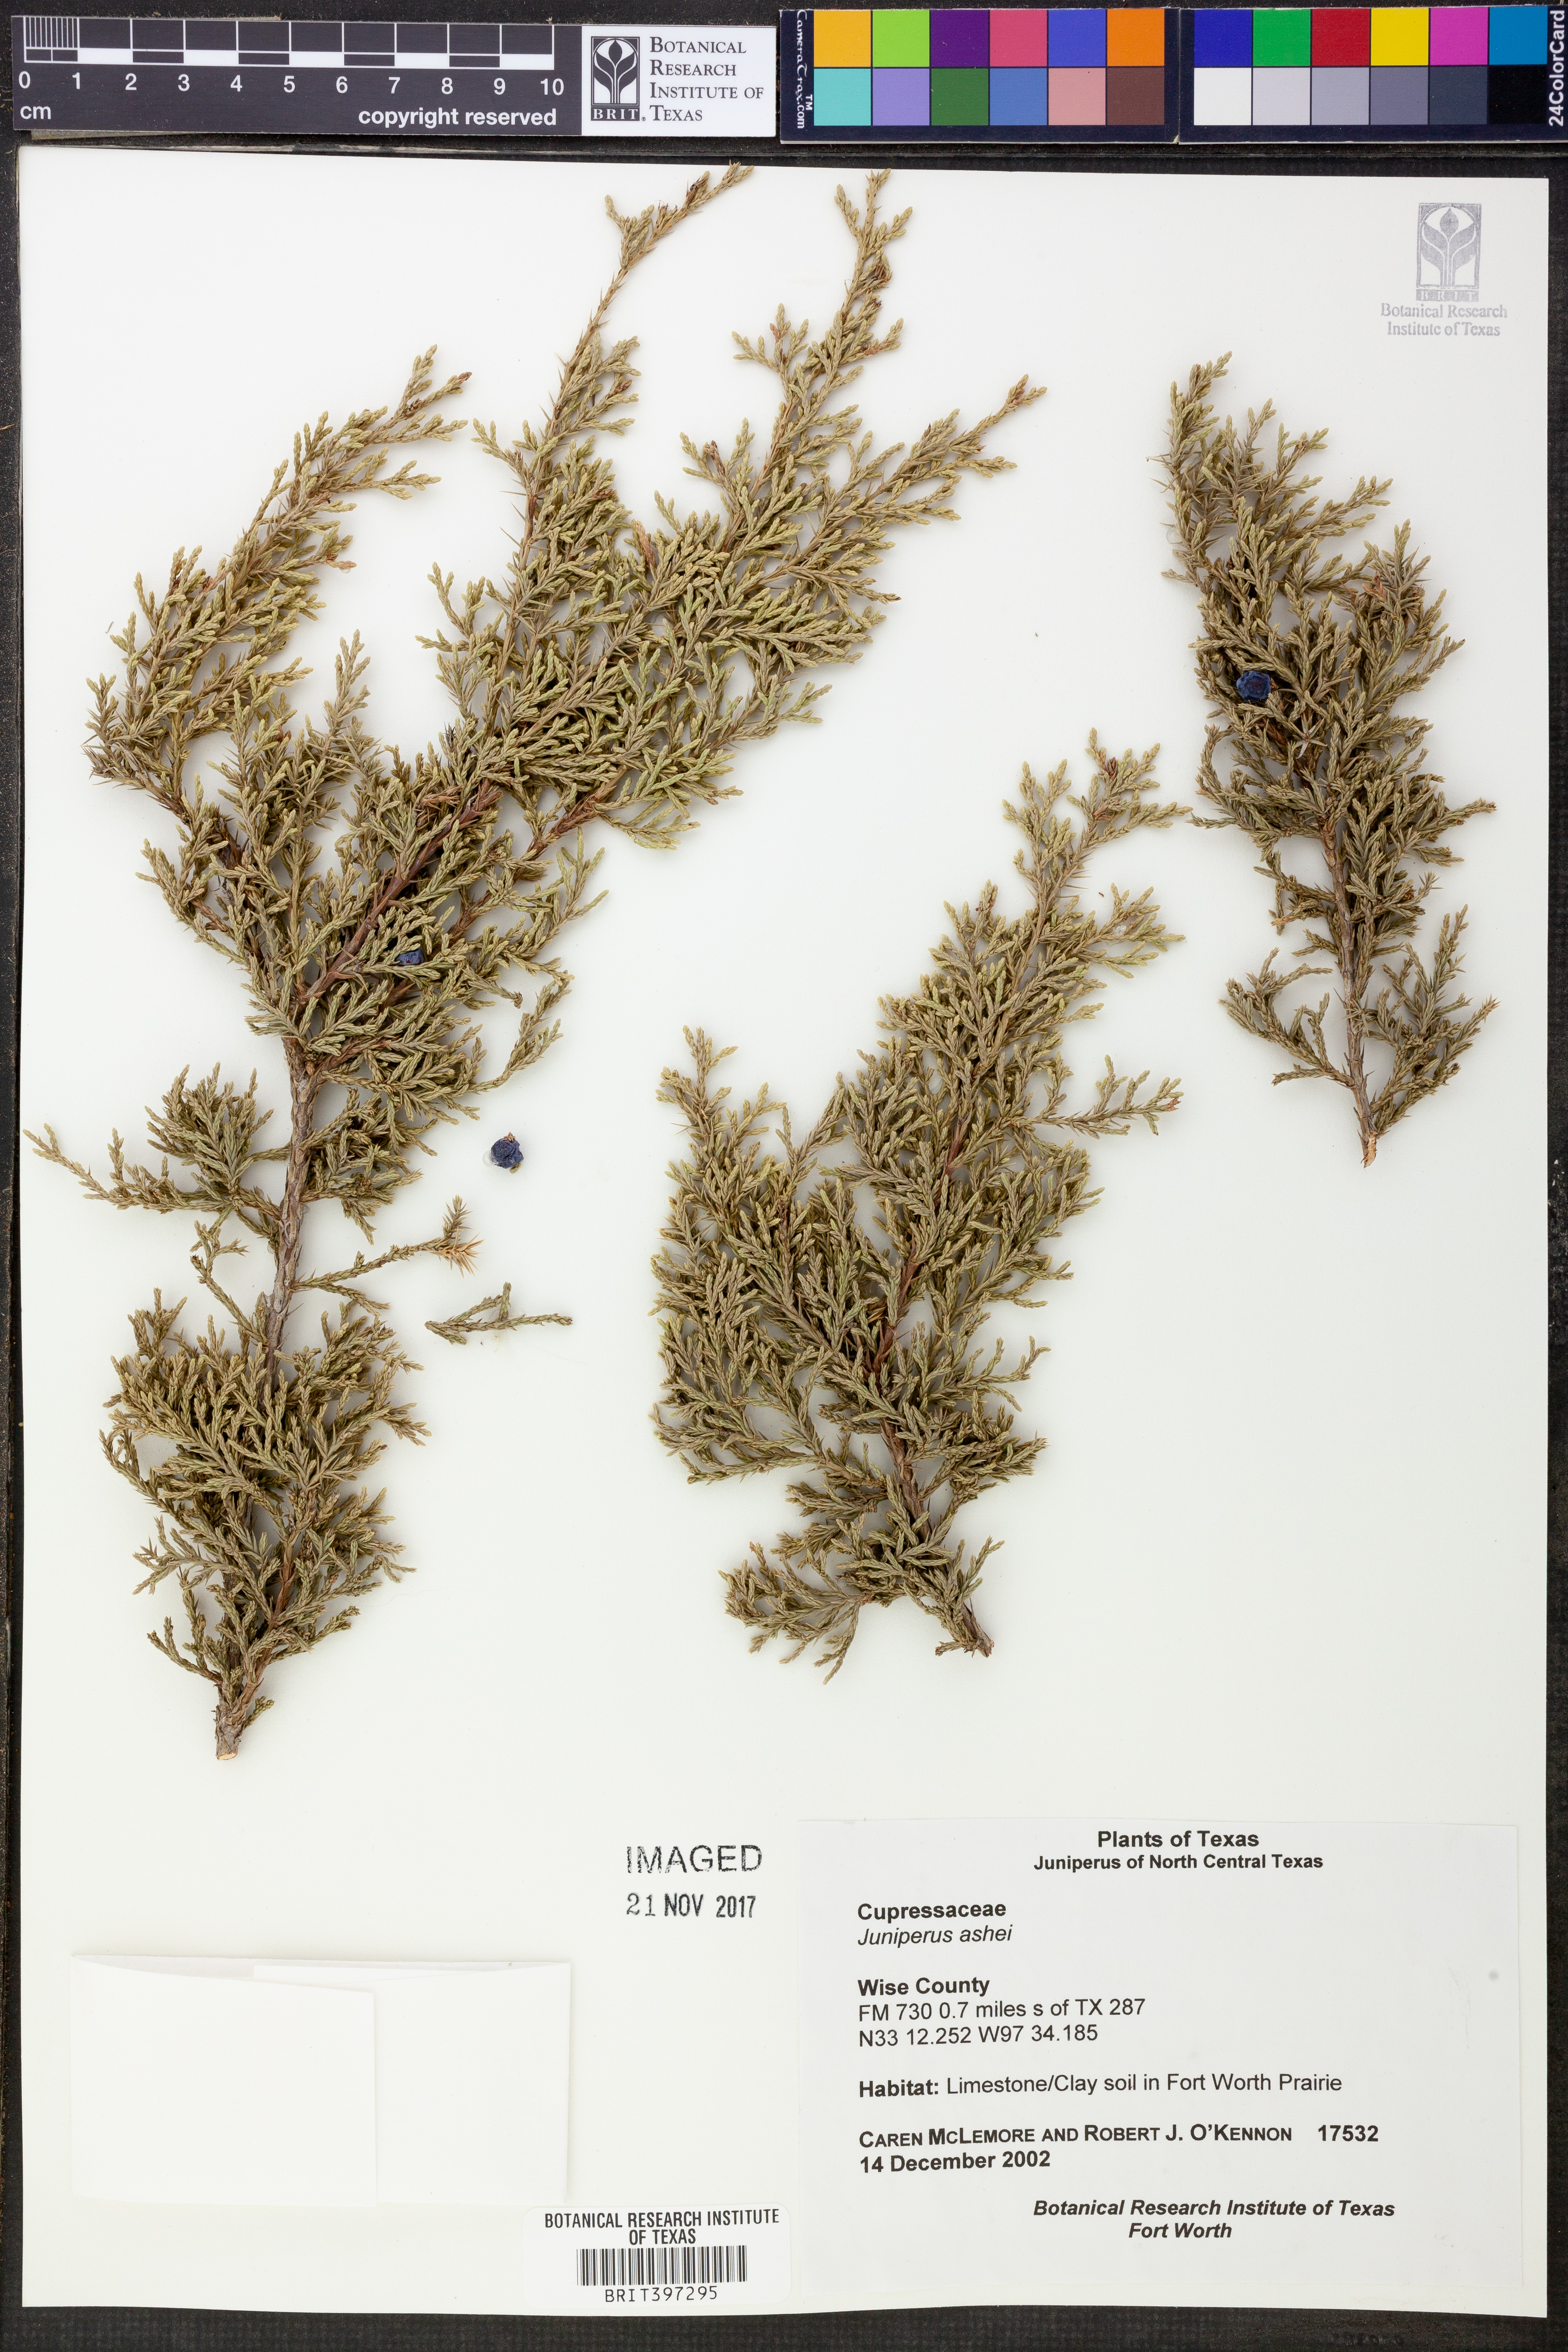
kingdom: Plantae
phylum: Tracheophyta
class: Pinopsida
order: Pinales
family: Cupressaceae
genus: Juniperus
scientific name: Juniperus ashei
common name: Mexican juniper
